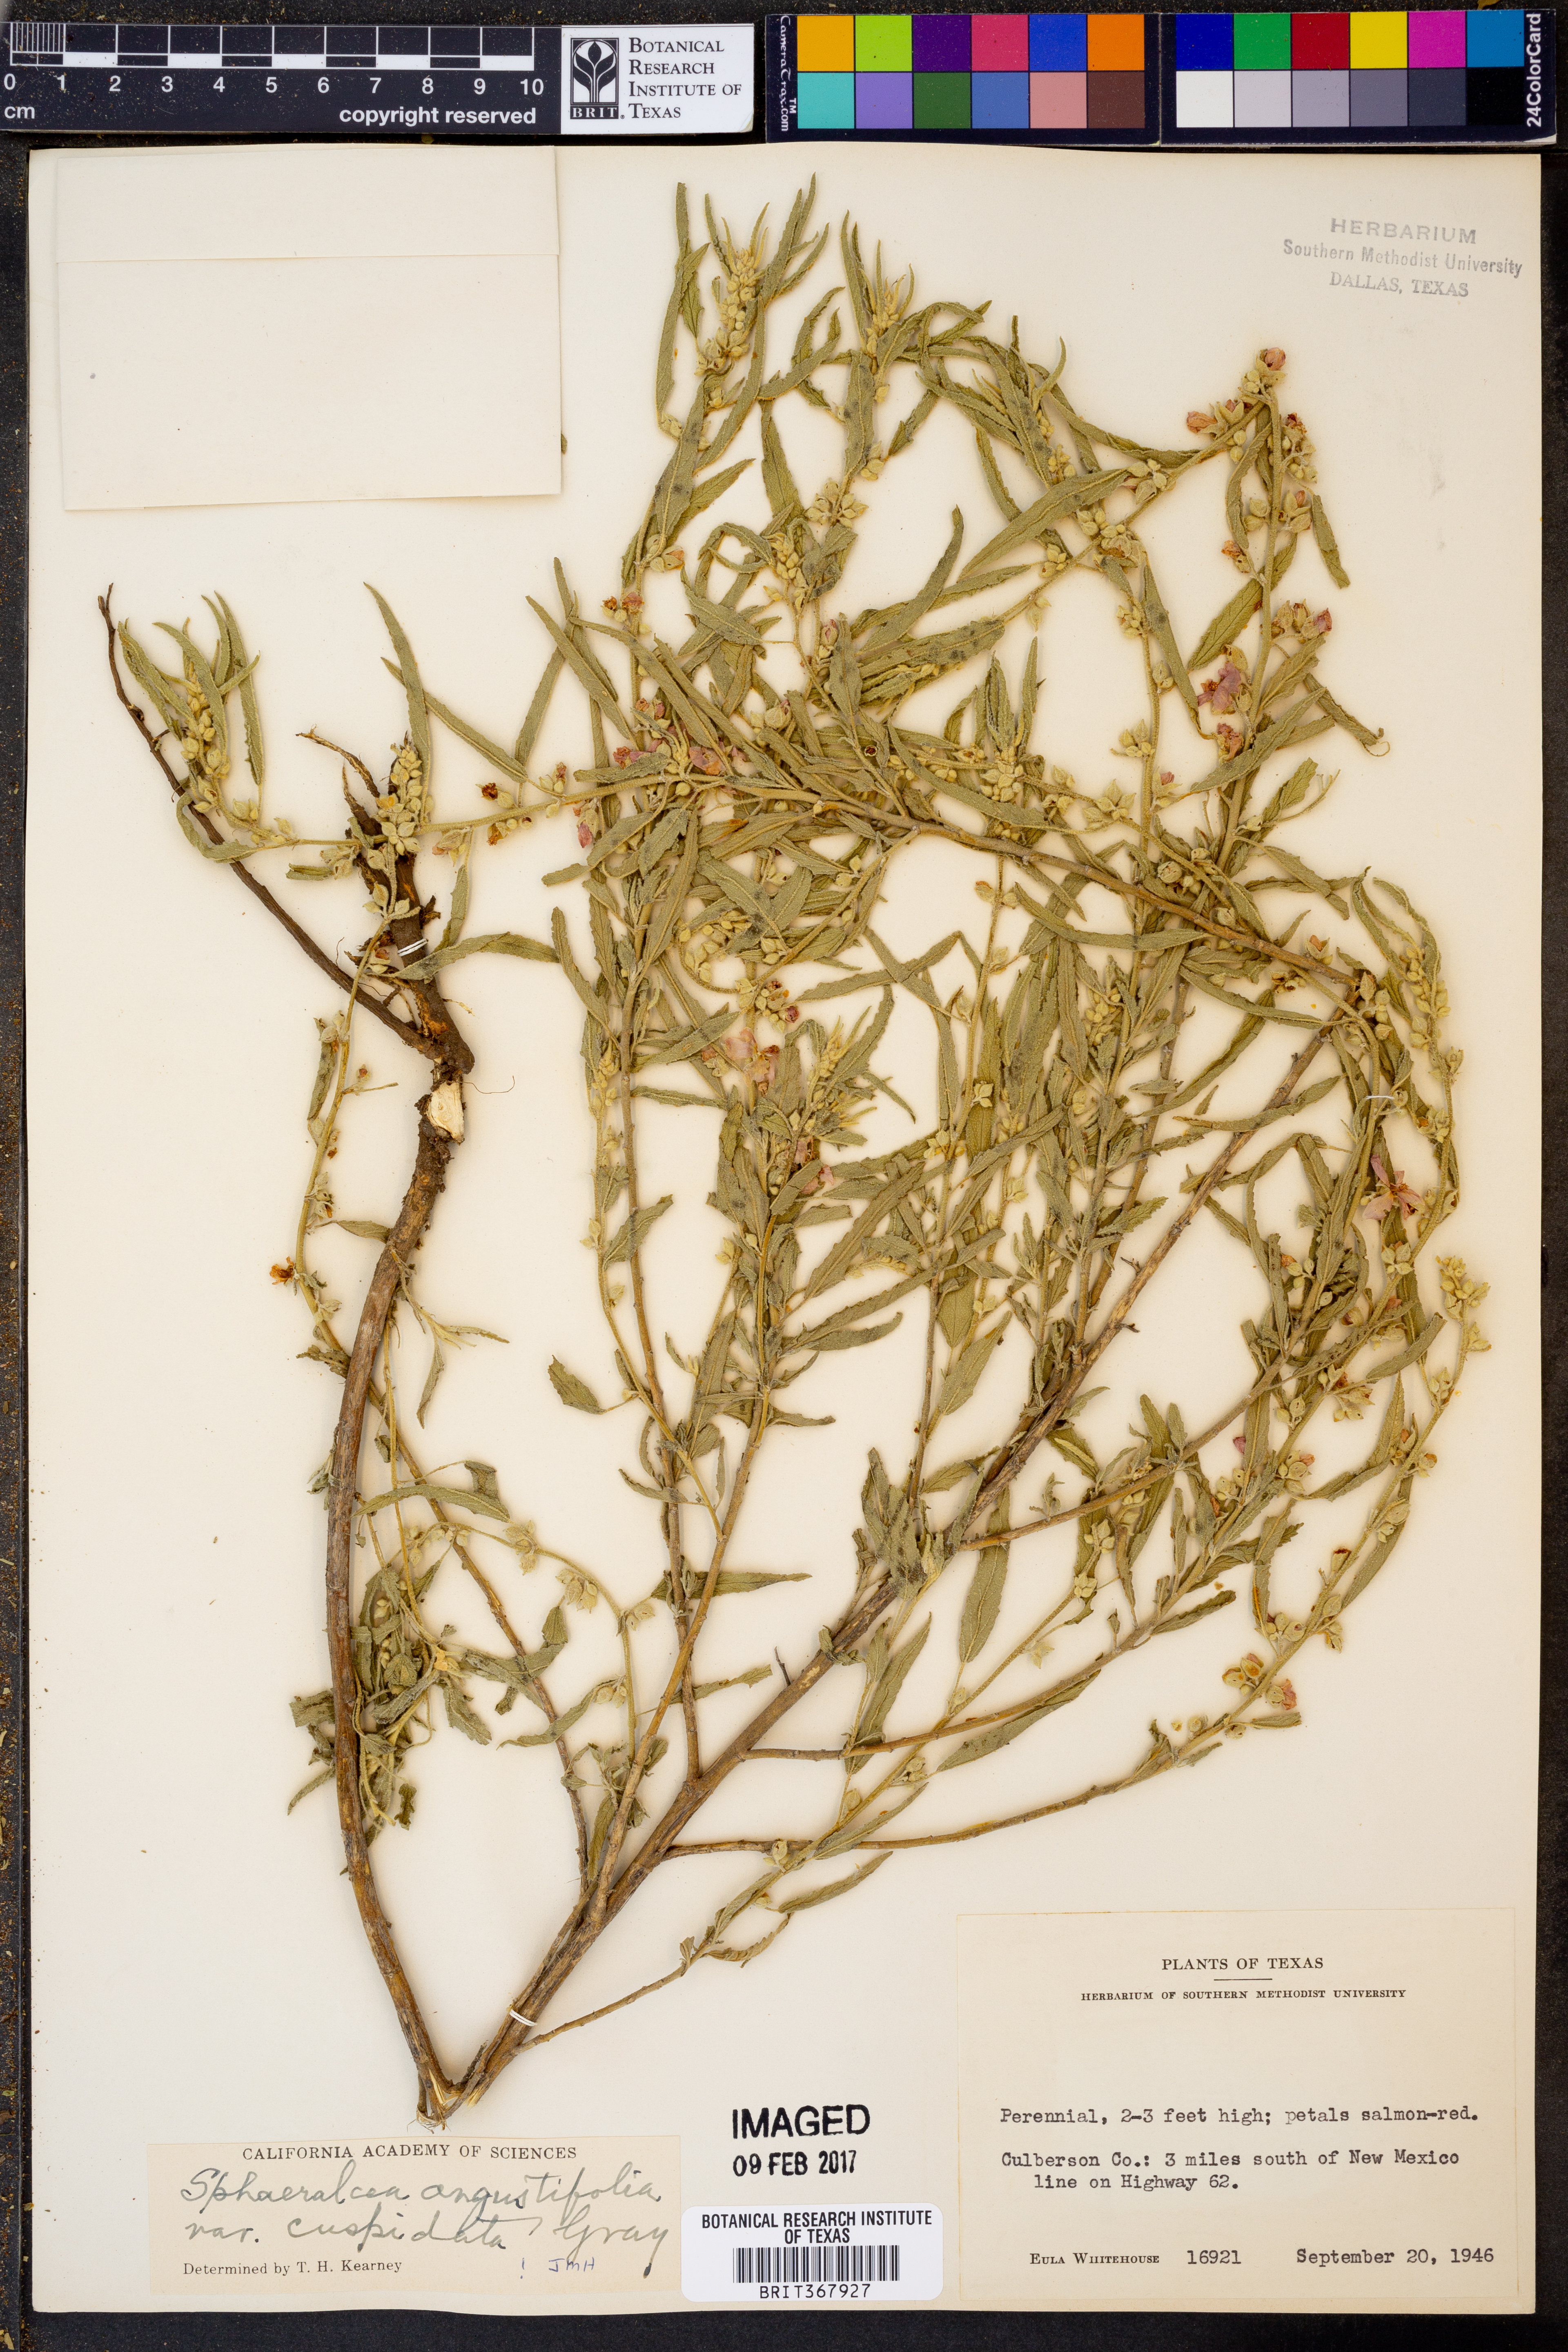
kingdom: Plantae
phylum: Tracheophyta
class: Magnoliopsida
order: Malvales
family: Malvaceae
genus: Sphaeralcea
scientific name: Sphaeralcea angustifolia
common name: Copper globe-mallow
